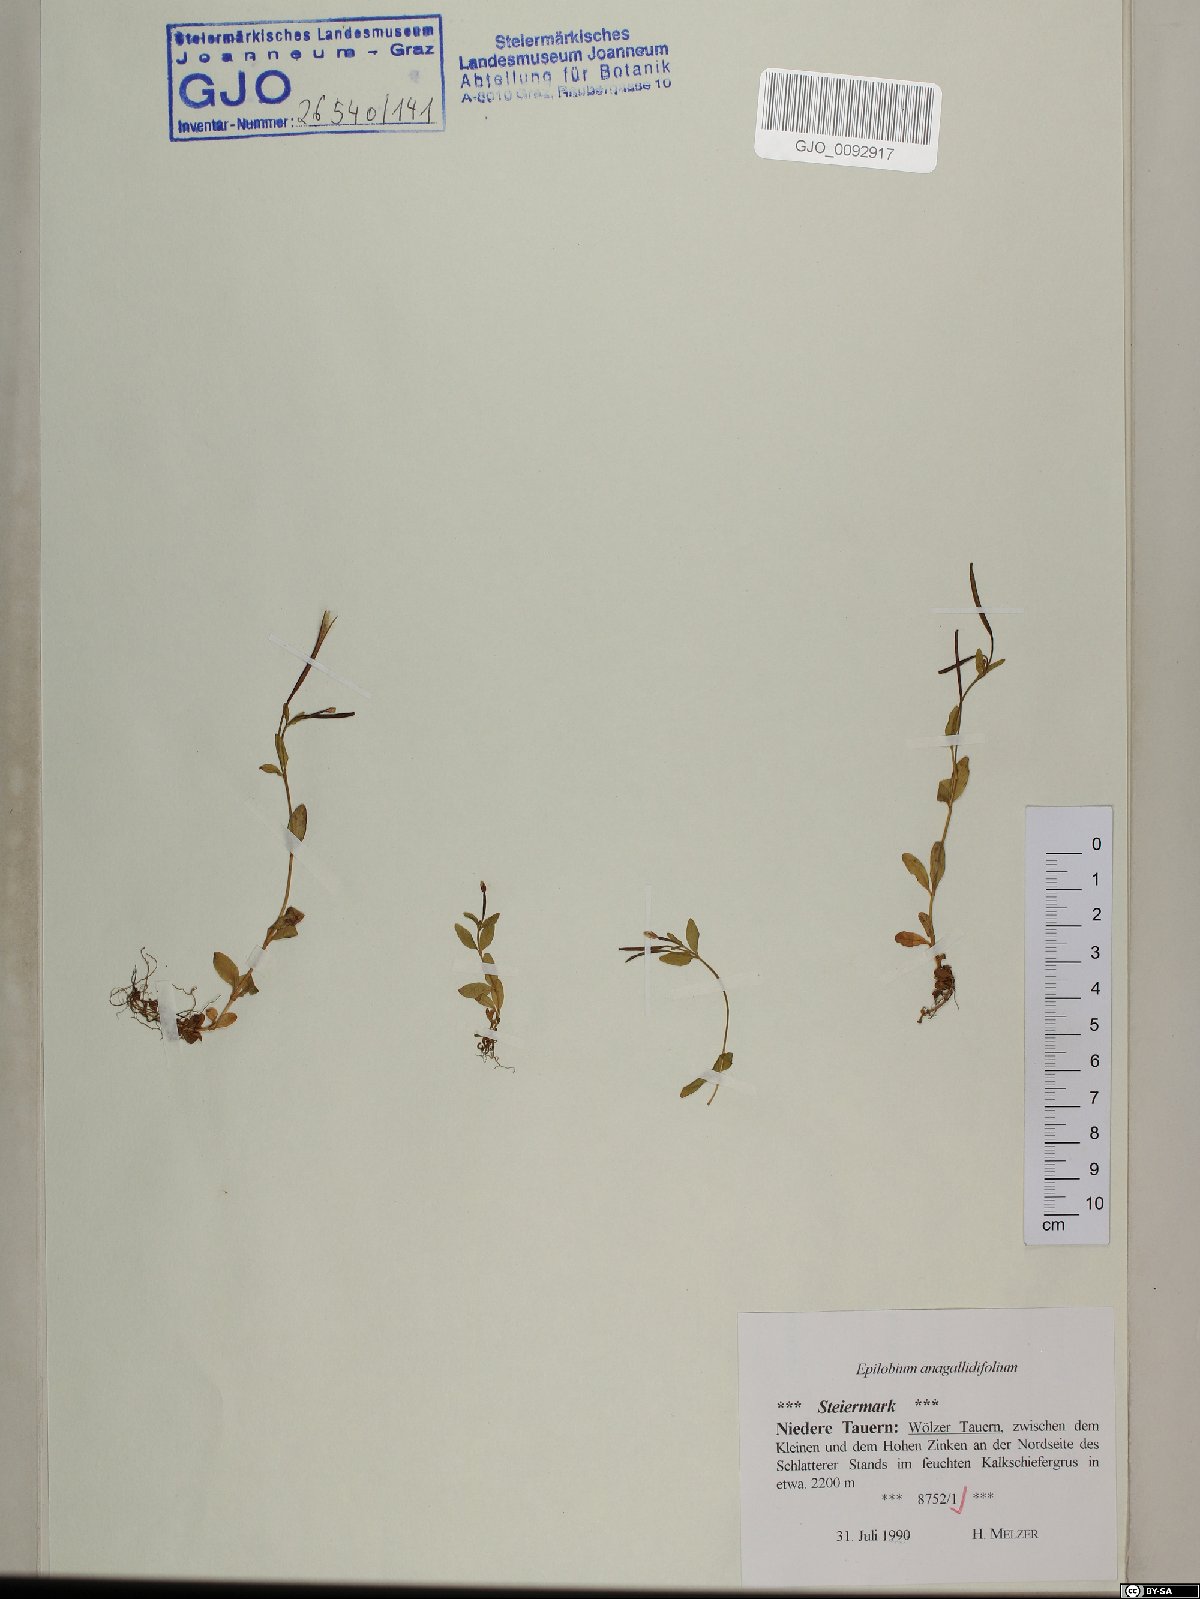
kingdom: Plantae
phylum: Tracheophyta
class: Magnoliopsida
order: Myrtales
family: Onagraceae
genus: Epilobium
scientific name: Epilobium anagallidifolium
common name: Alpine willowherb
